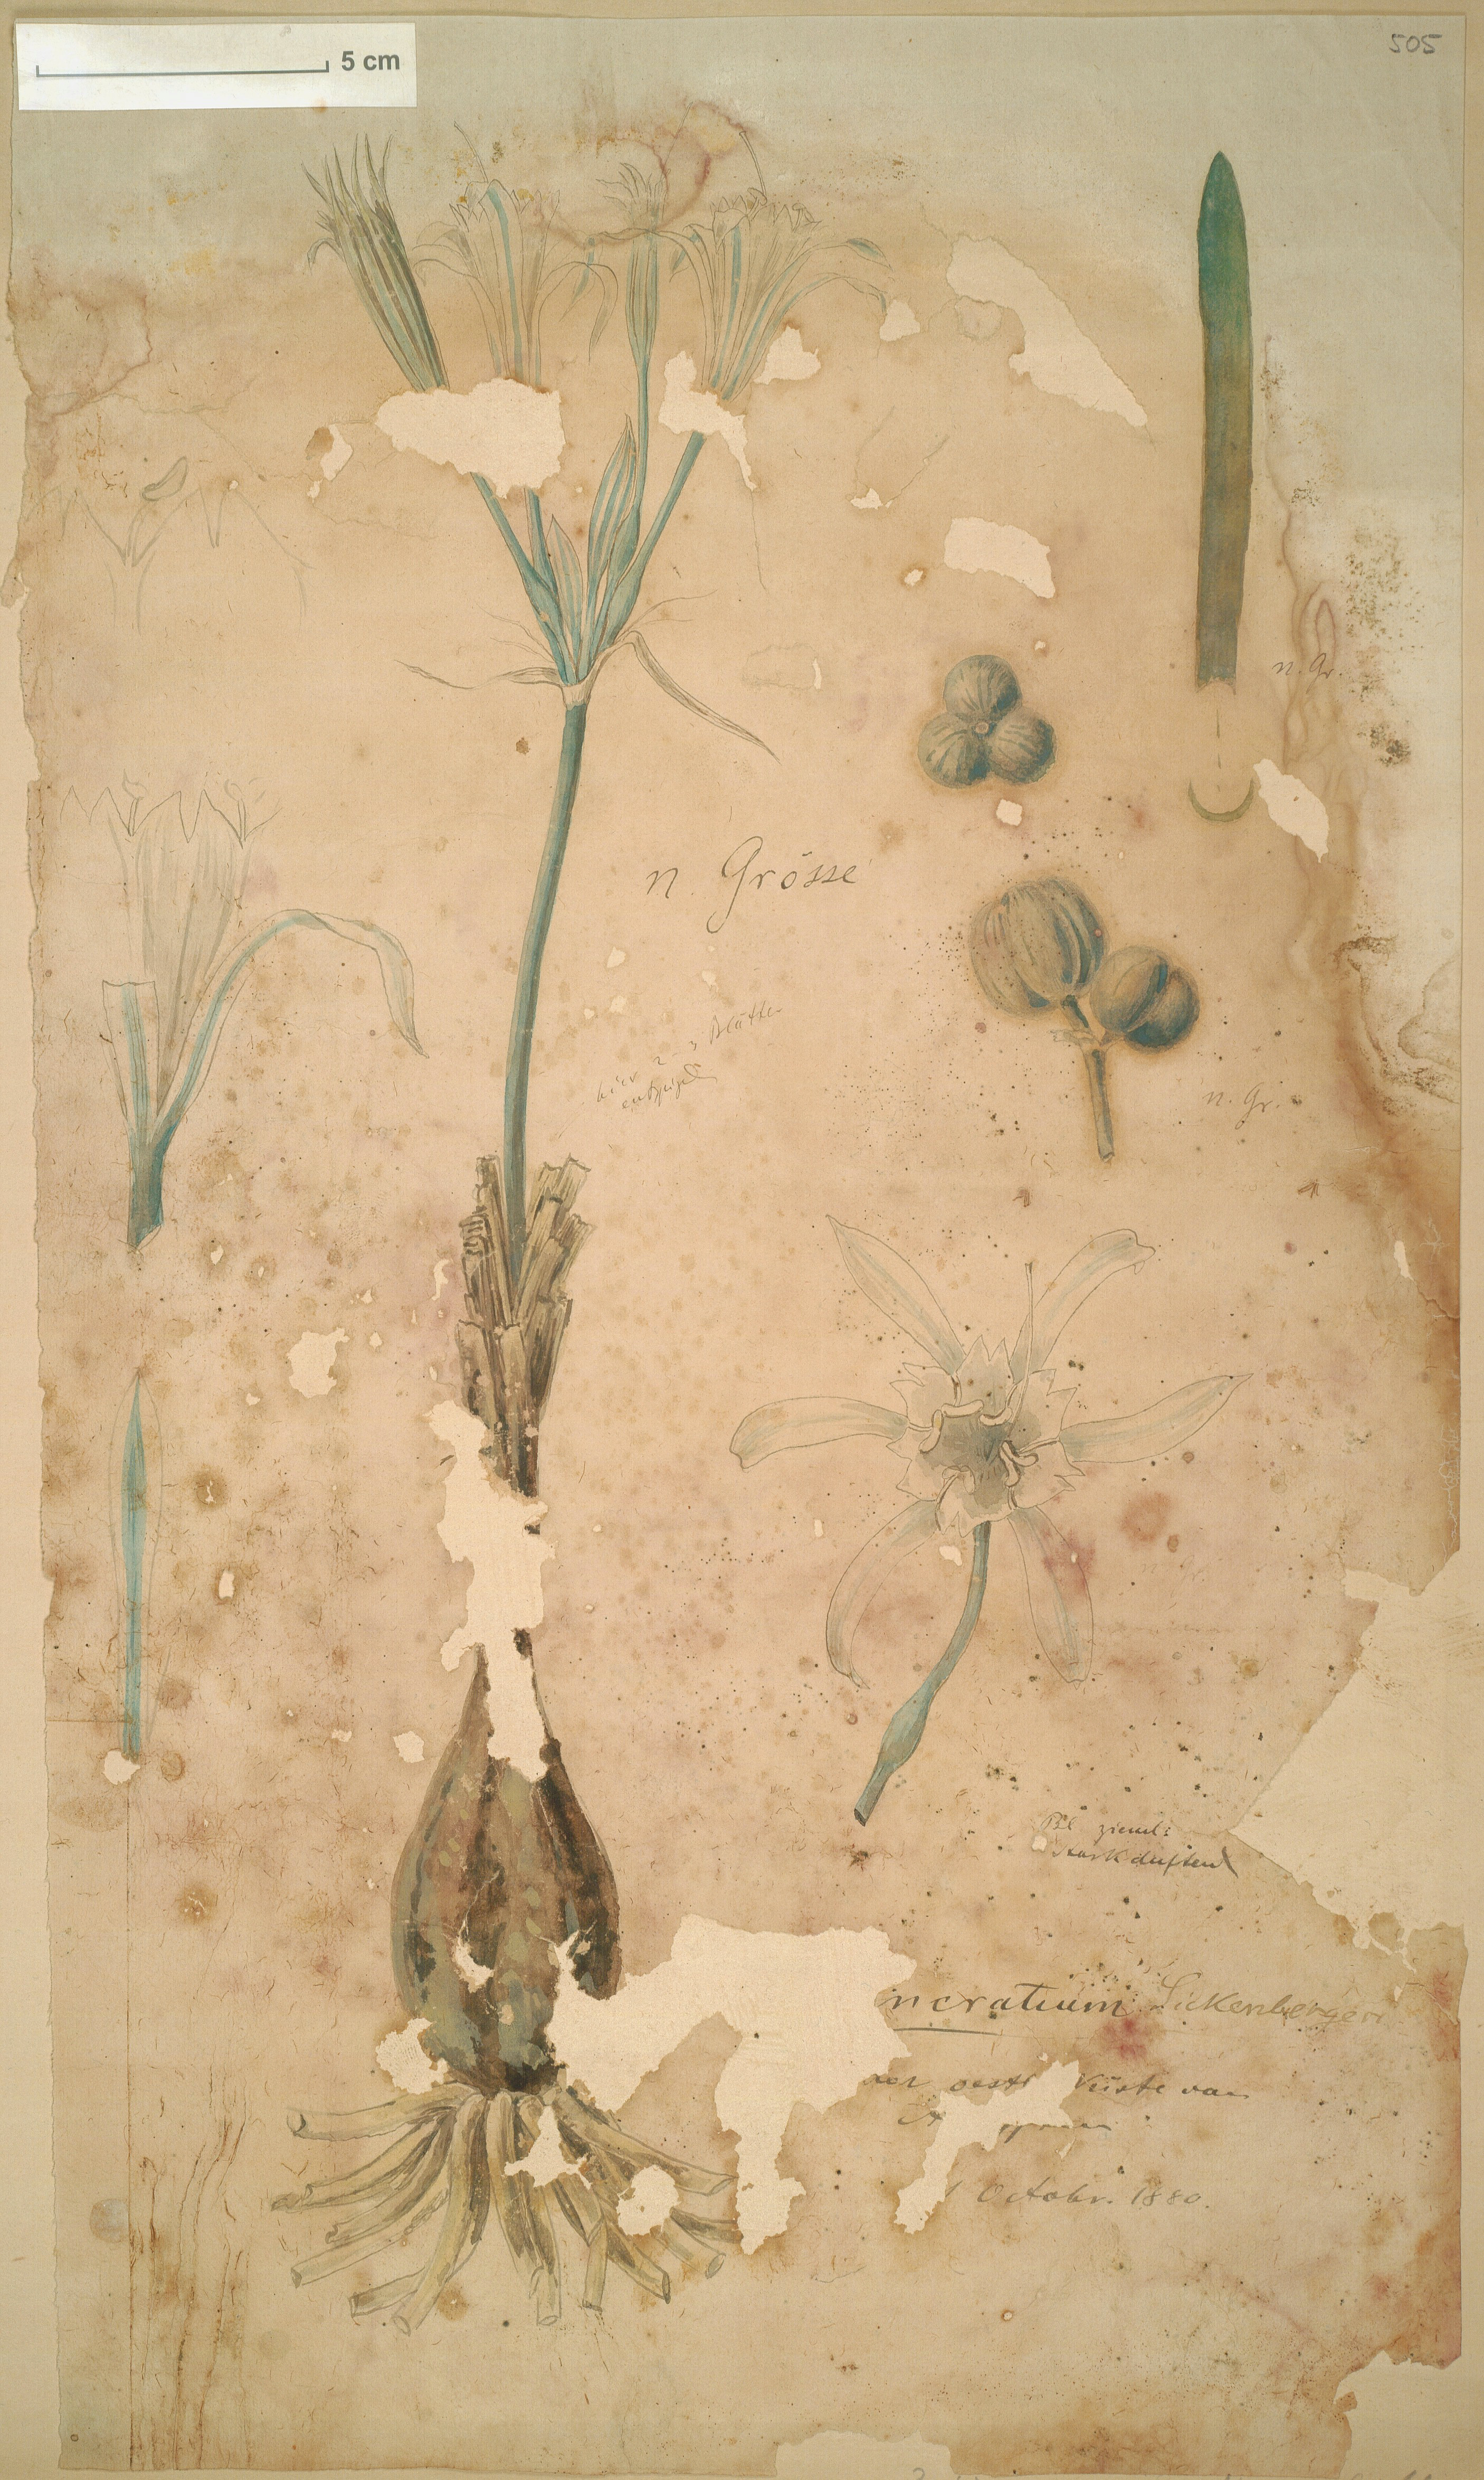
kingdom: Plantae
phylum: Tracheophyta
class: Liliopsida
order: Asparagales
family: Amaryllidaceae
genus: Pancratium
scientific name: Pancratium sickenbergeri
